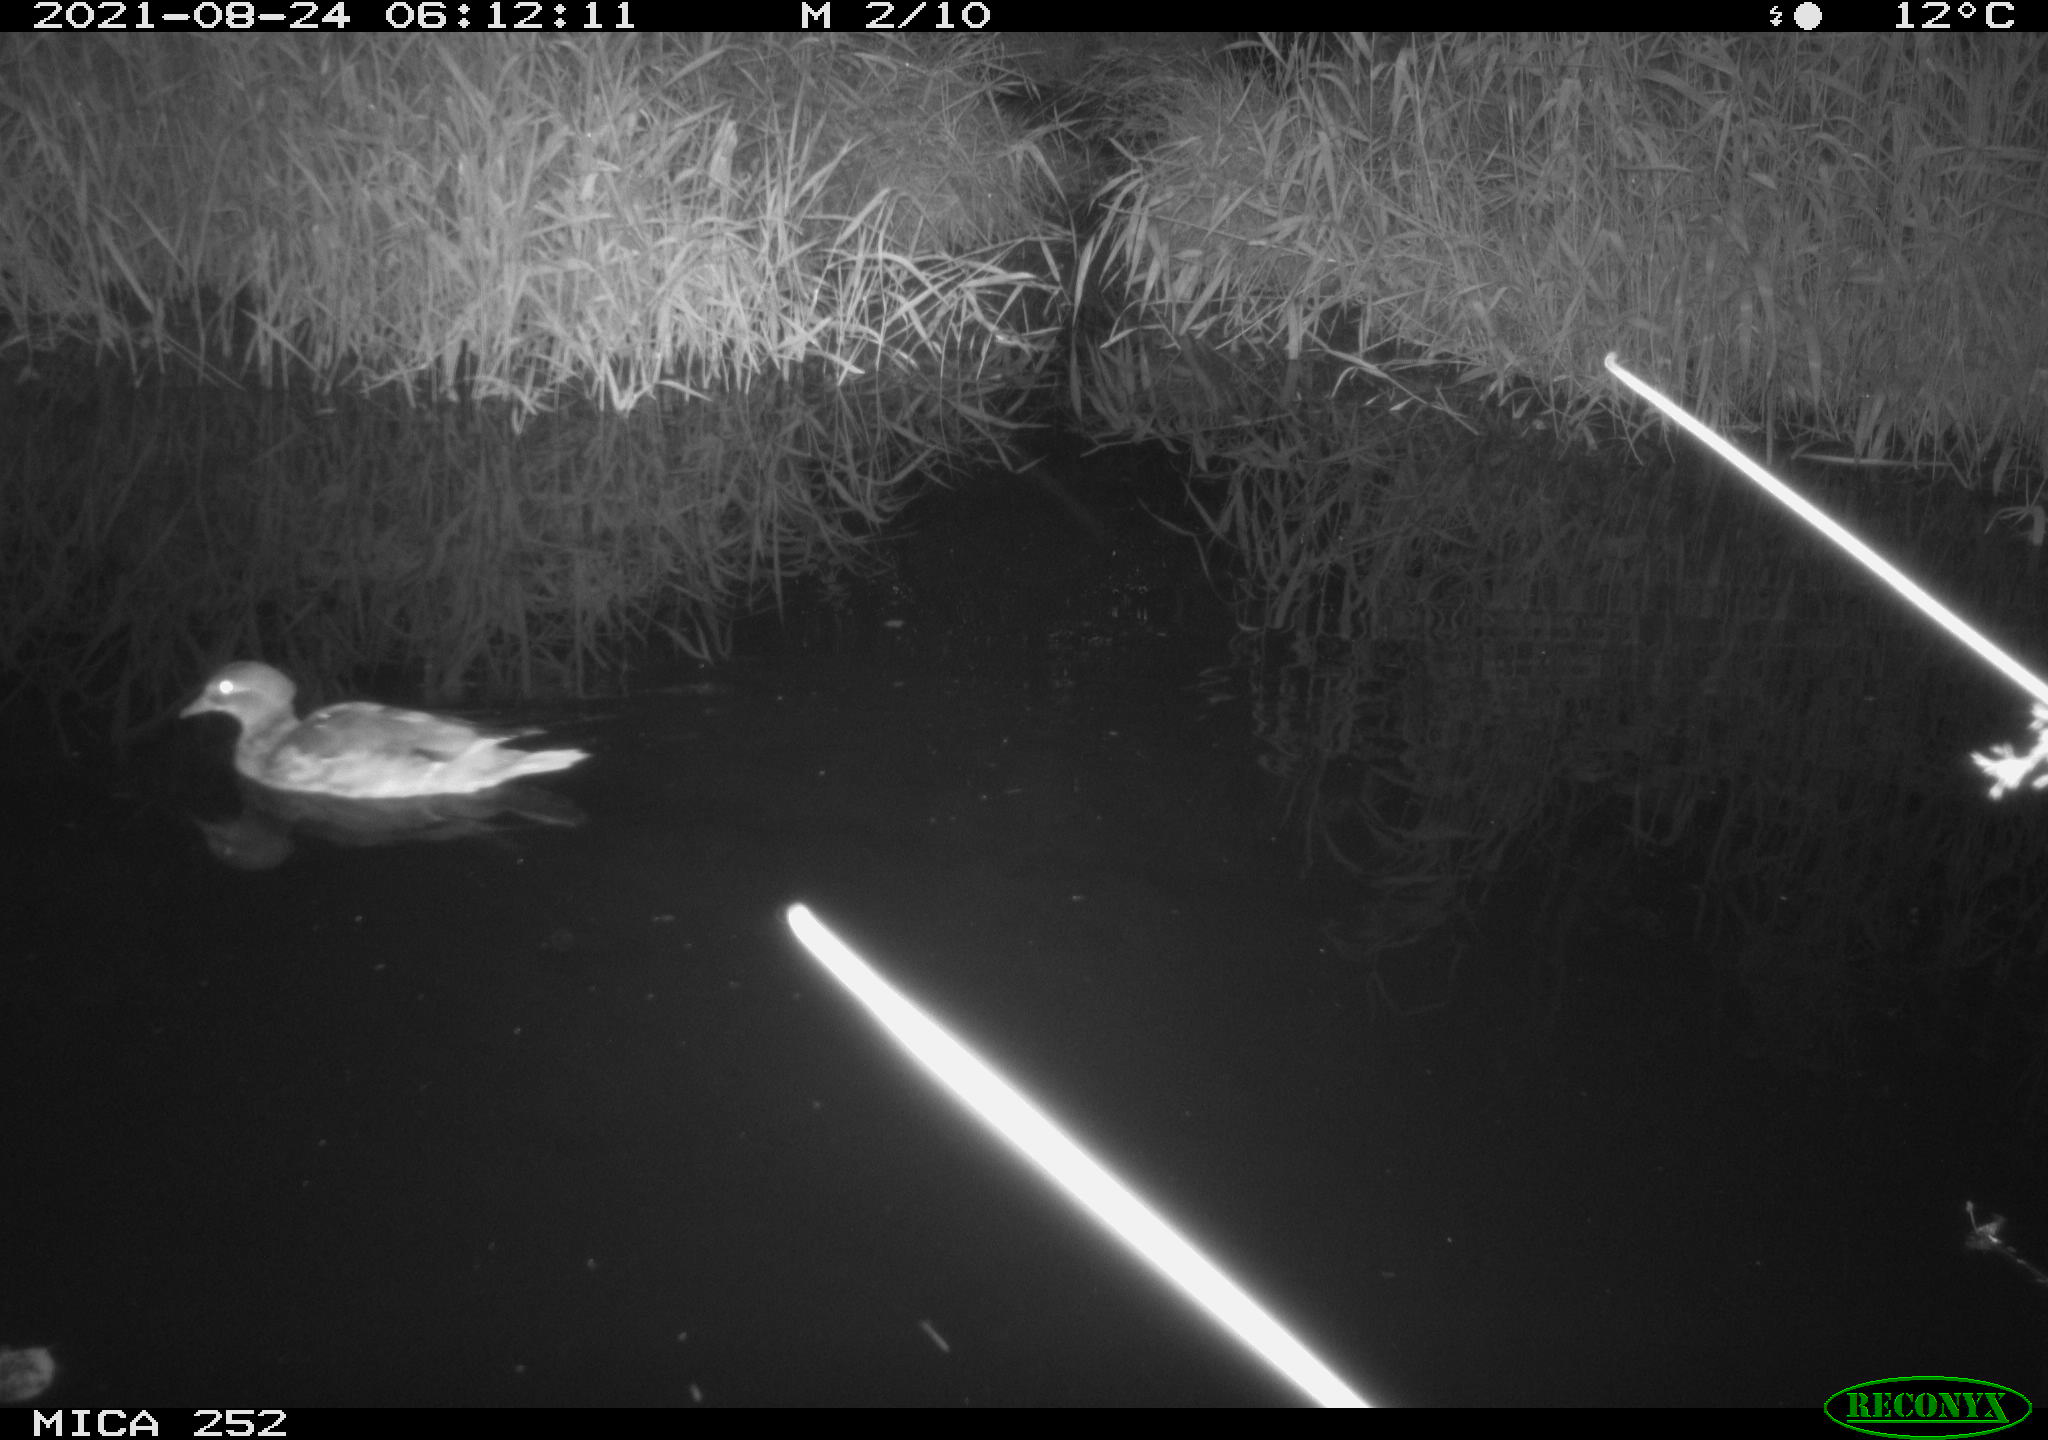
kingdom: Animalia
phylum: Chordata
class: Aves
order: Anseriformes
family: Anatidae
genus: Anas
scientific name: Anas
